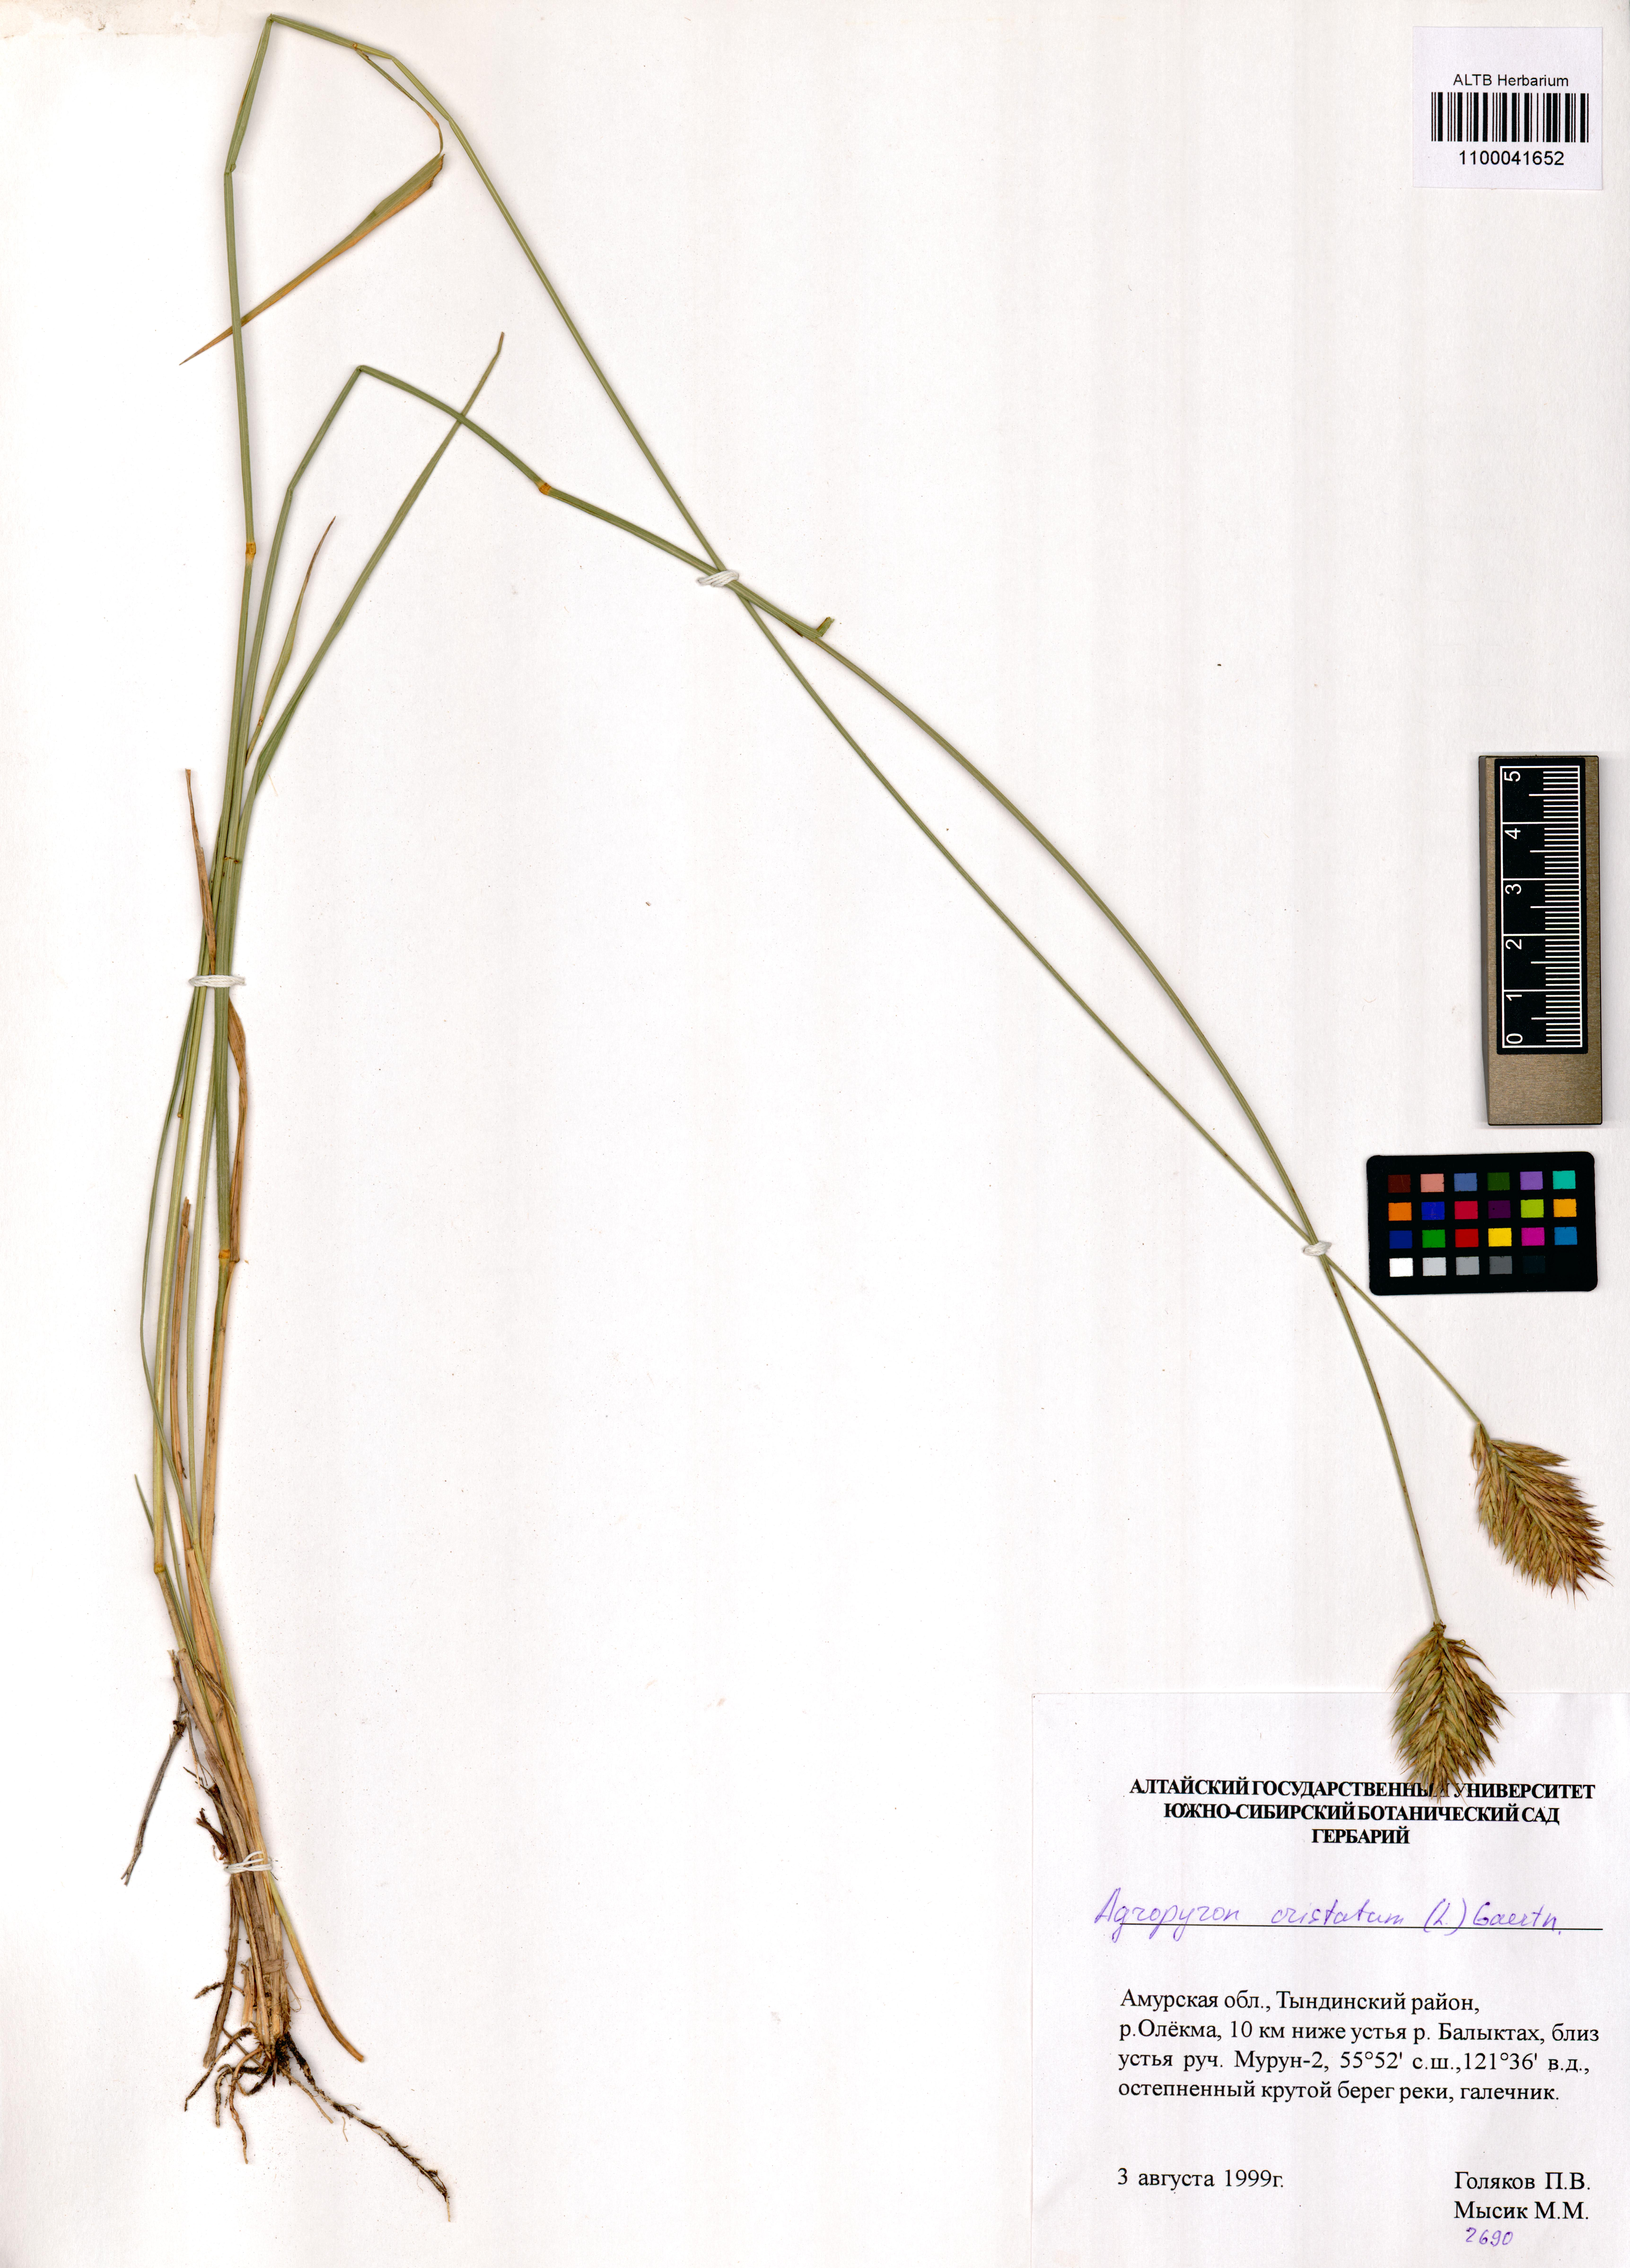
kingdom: Plantae
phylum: Tracheophyta
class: Liliopsida
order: Poales
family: Poaceae
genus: Agropyron
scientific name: Agropyron cristatum
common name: Crested wheatgrass
